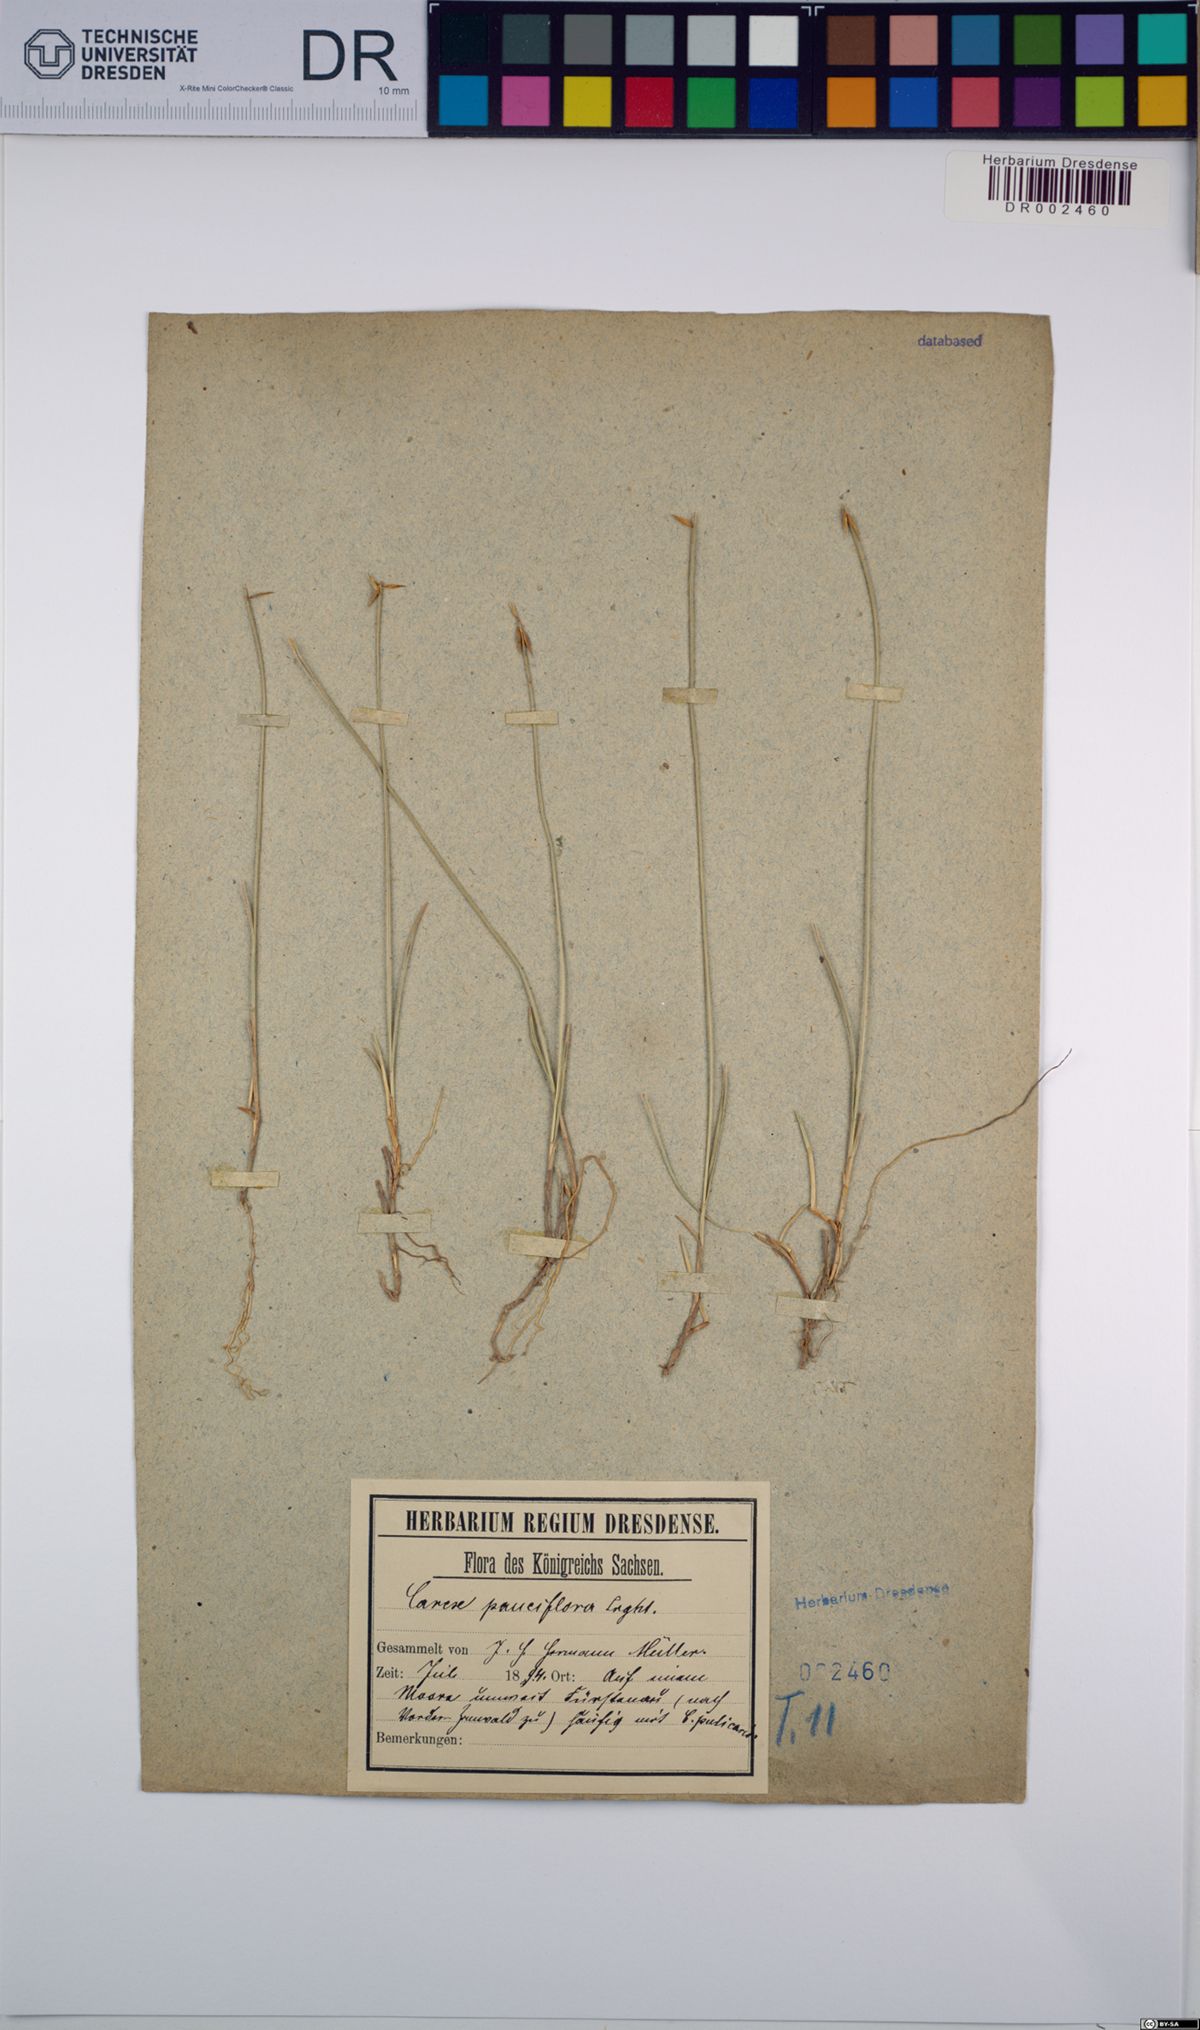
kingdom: Plantae
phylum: Tracheophyta
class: Liliopsida
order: Poales
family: Cyperaceae
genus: Carex
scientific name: Carex pauciflora
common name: Few-flowered sedge
